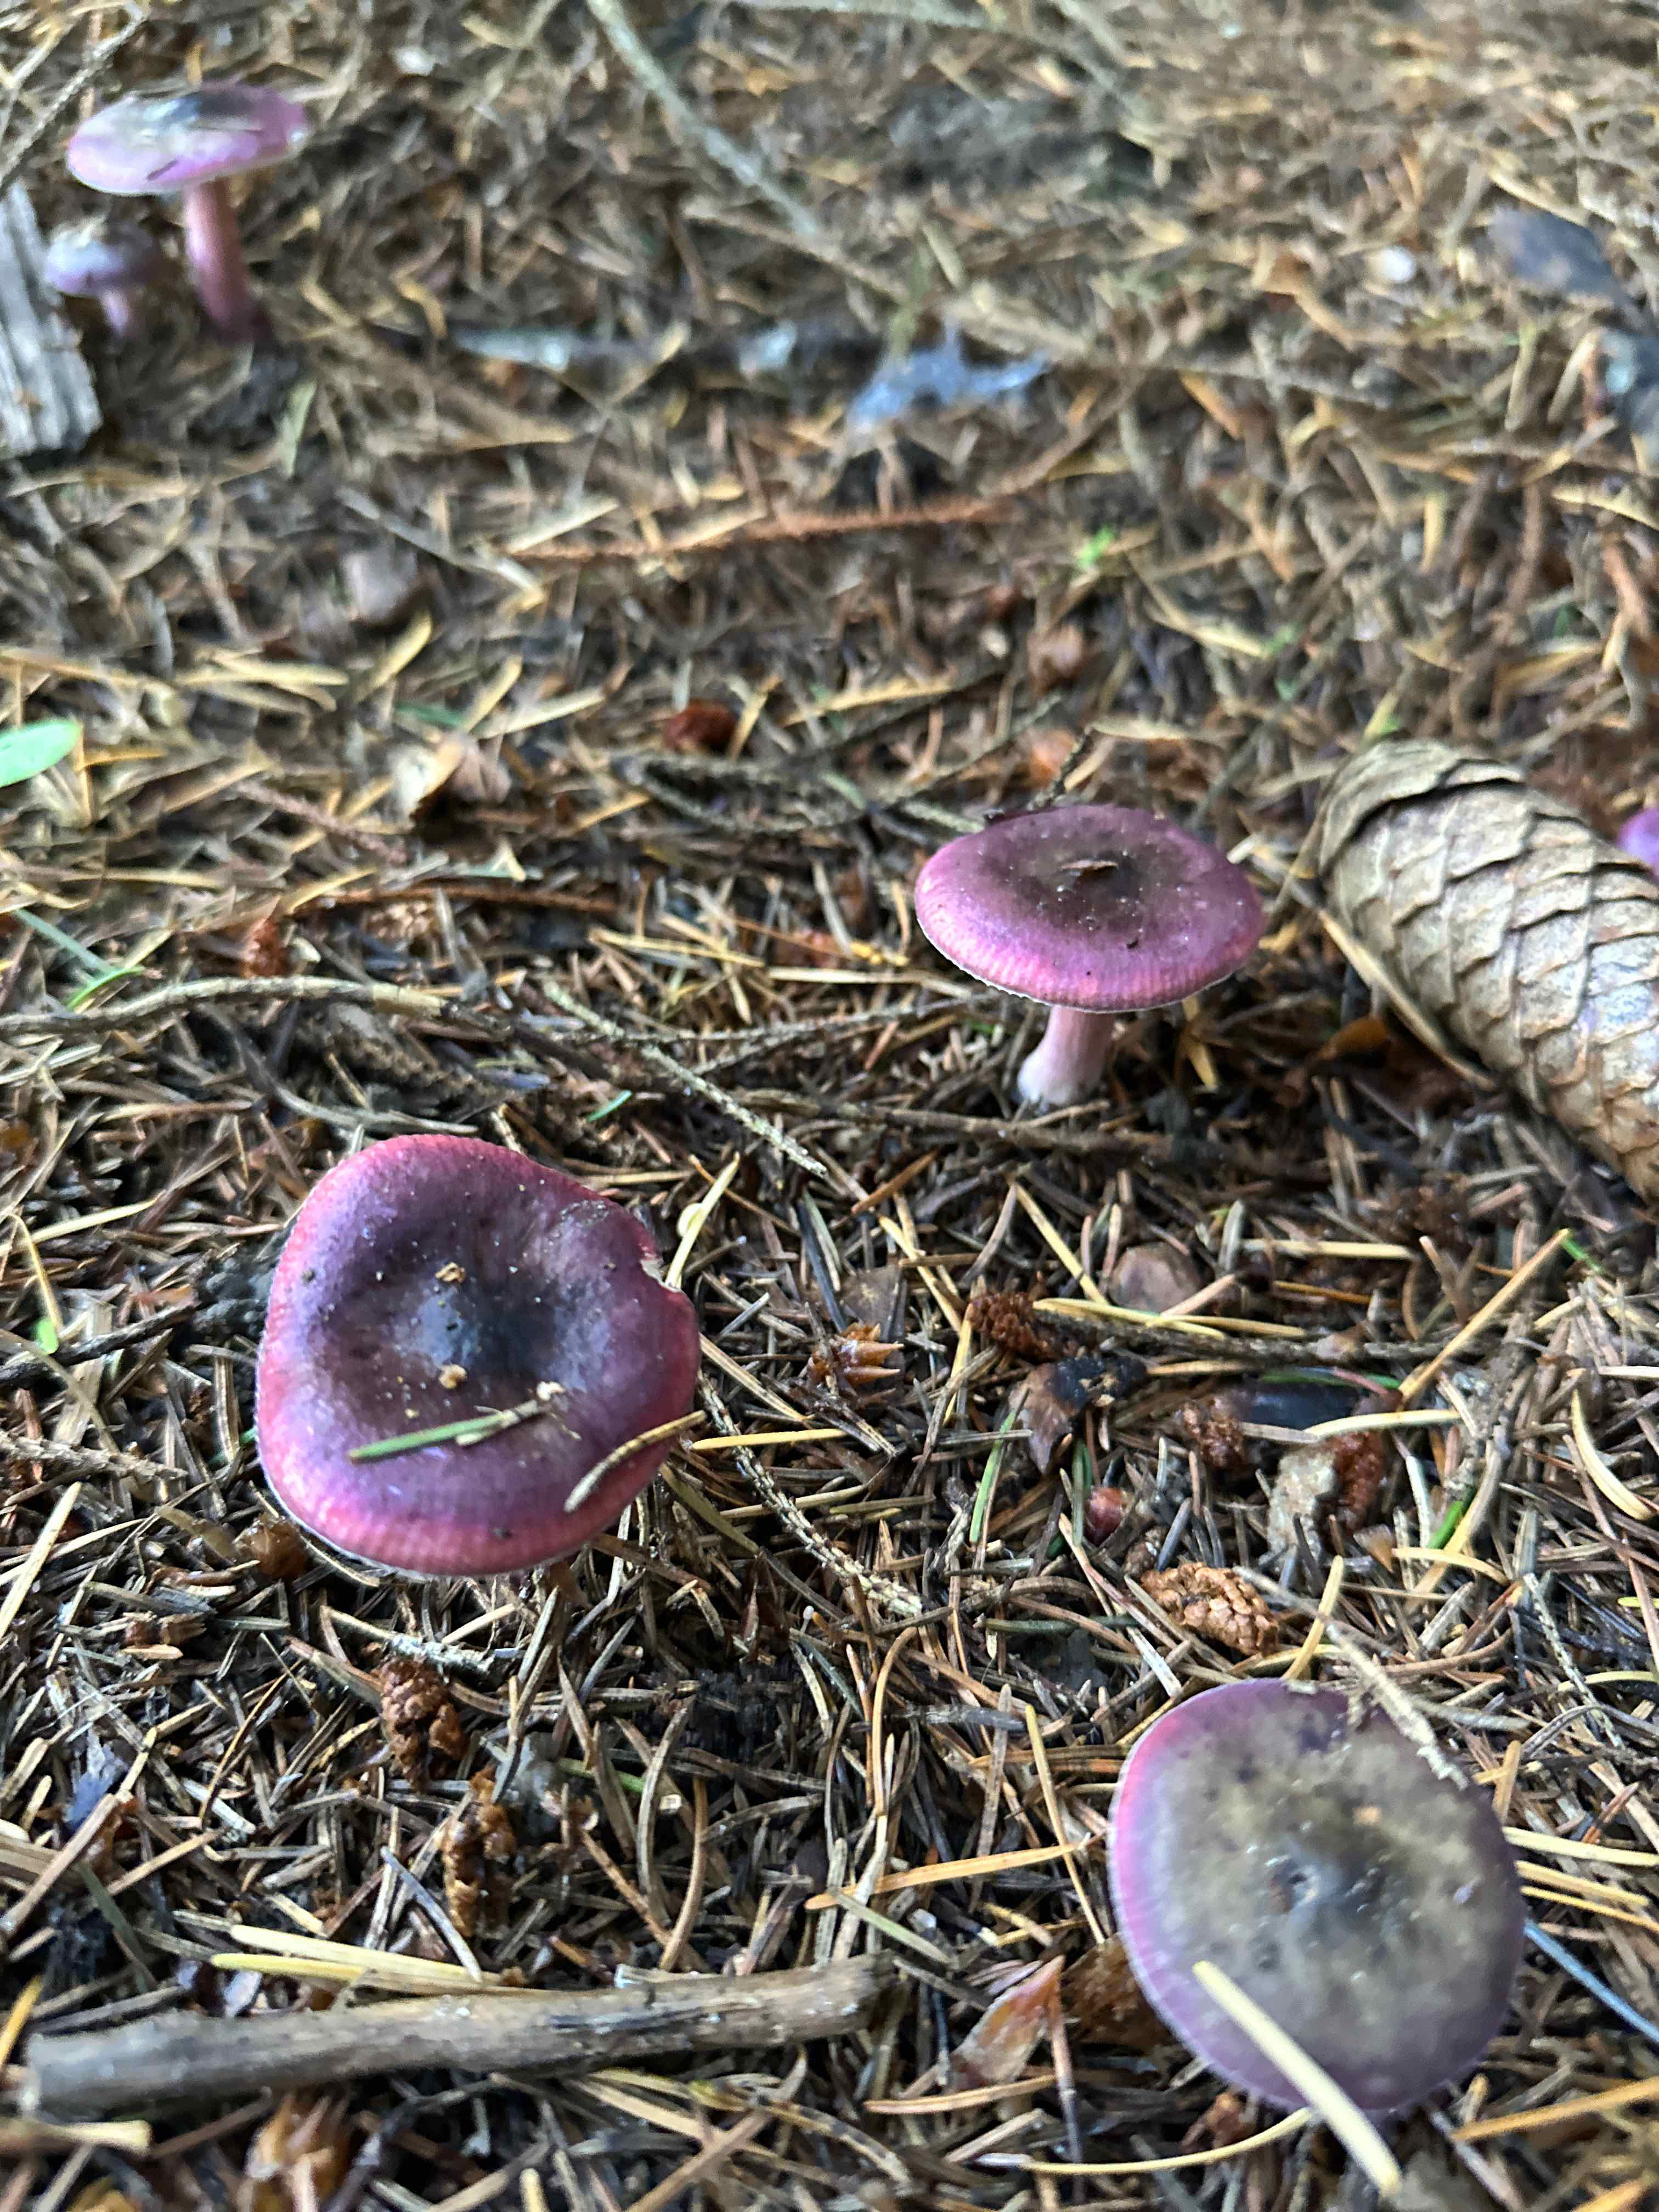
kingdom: Fungi
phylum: Basidiomycota
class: Agaricomycetes
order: Russulales
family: Russulaceae
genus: Russula
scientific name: Russula
